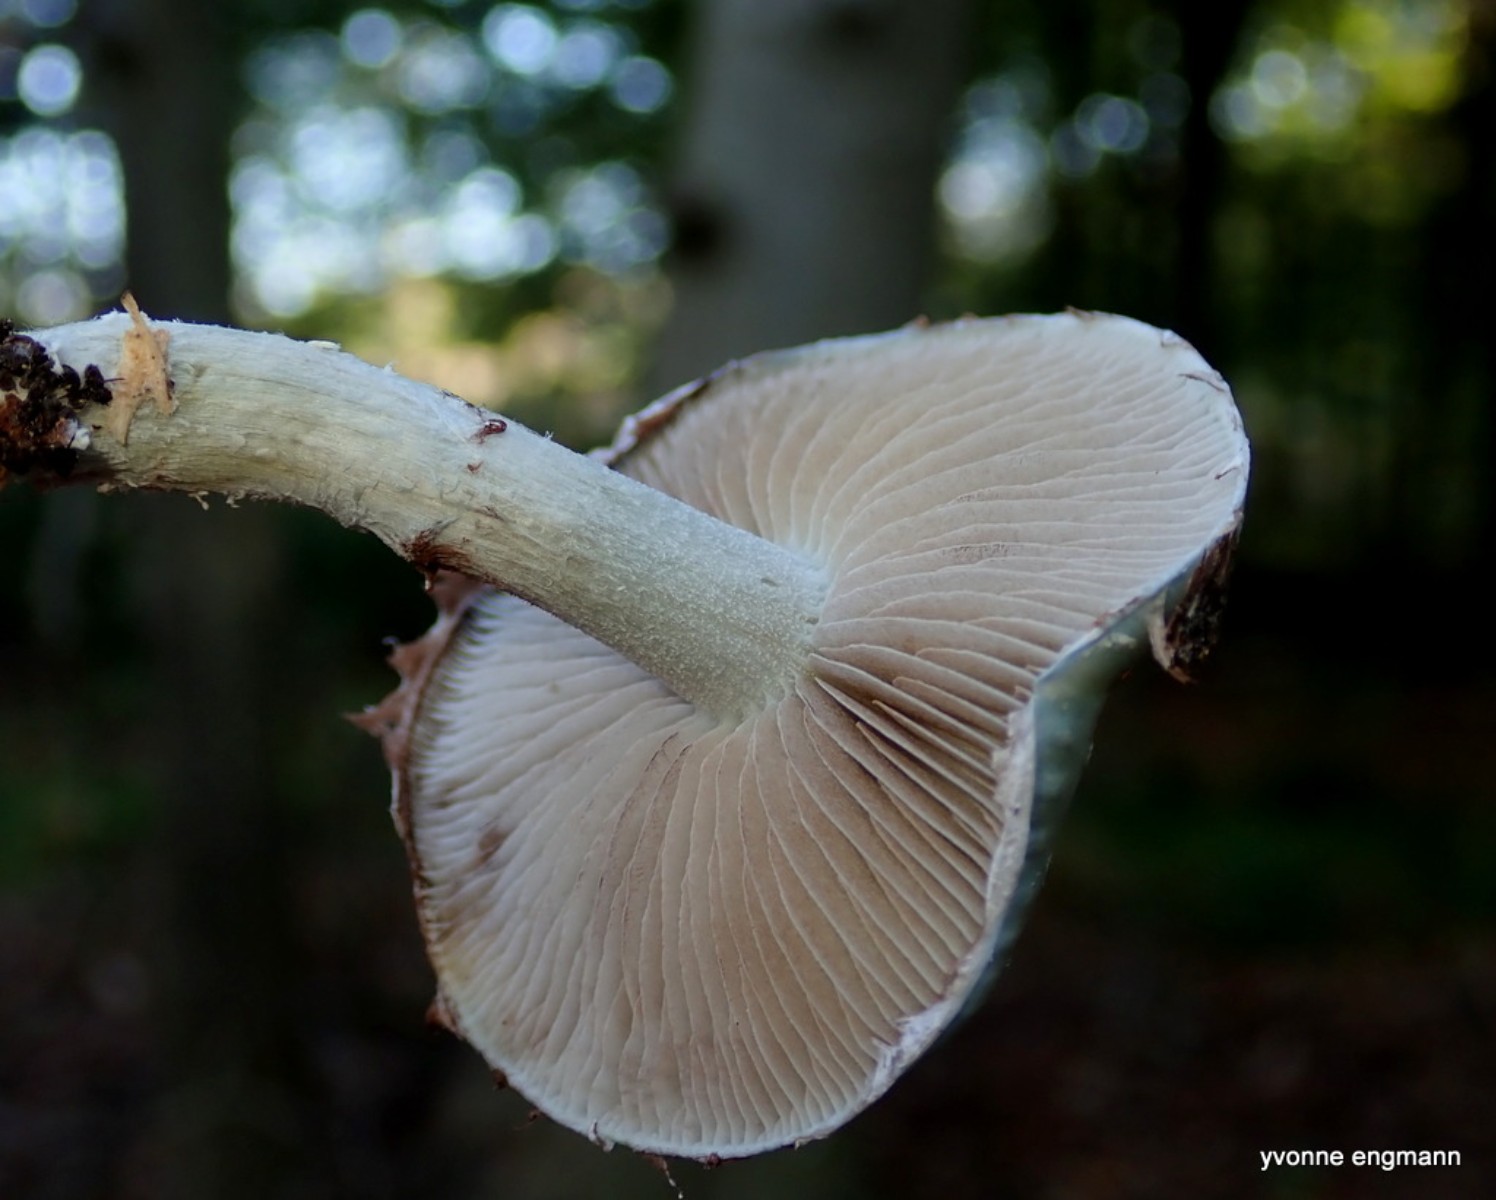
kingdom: Fungi
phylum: Basidiomycota
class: Agaricomycetes
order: Agaricales
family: Strophariaceae
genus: Stropharia
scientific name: Stropharia cyanea
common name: blågrøn bredblad
